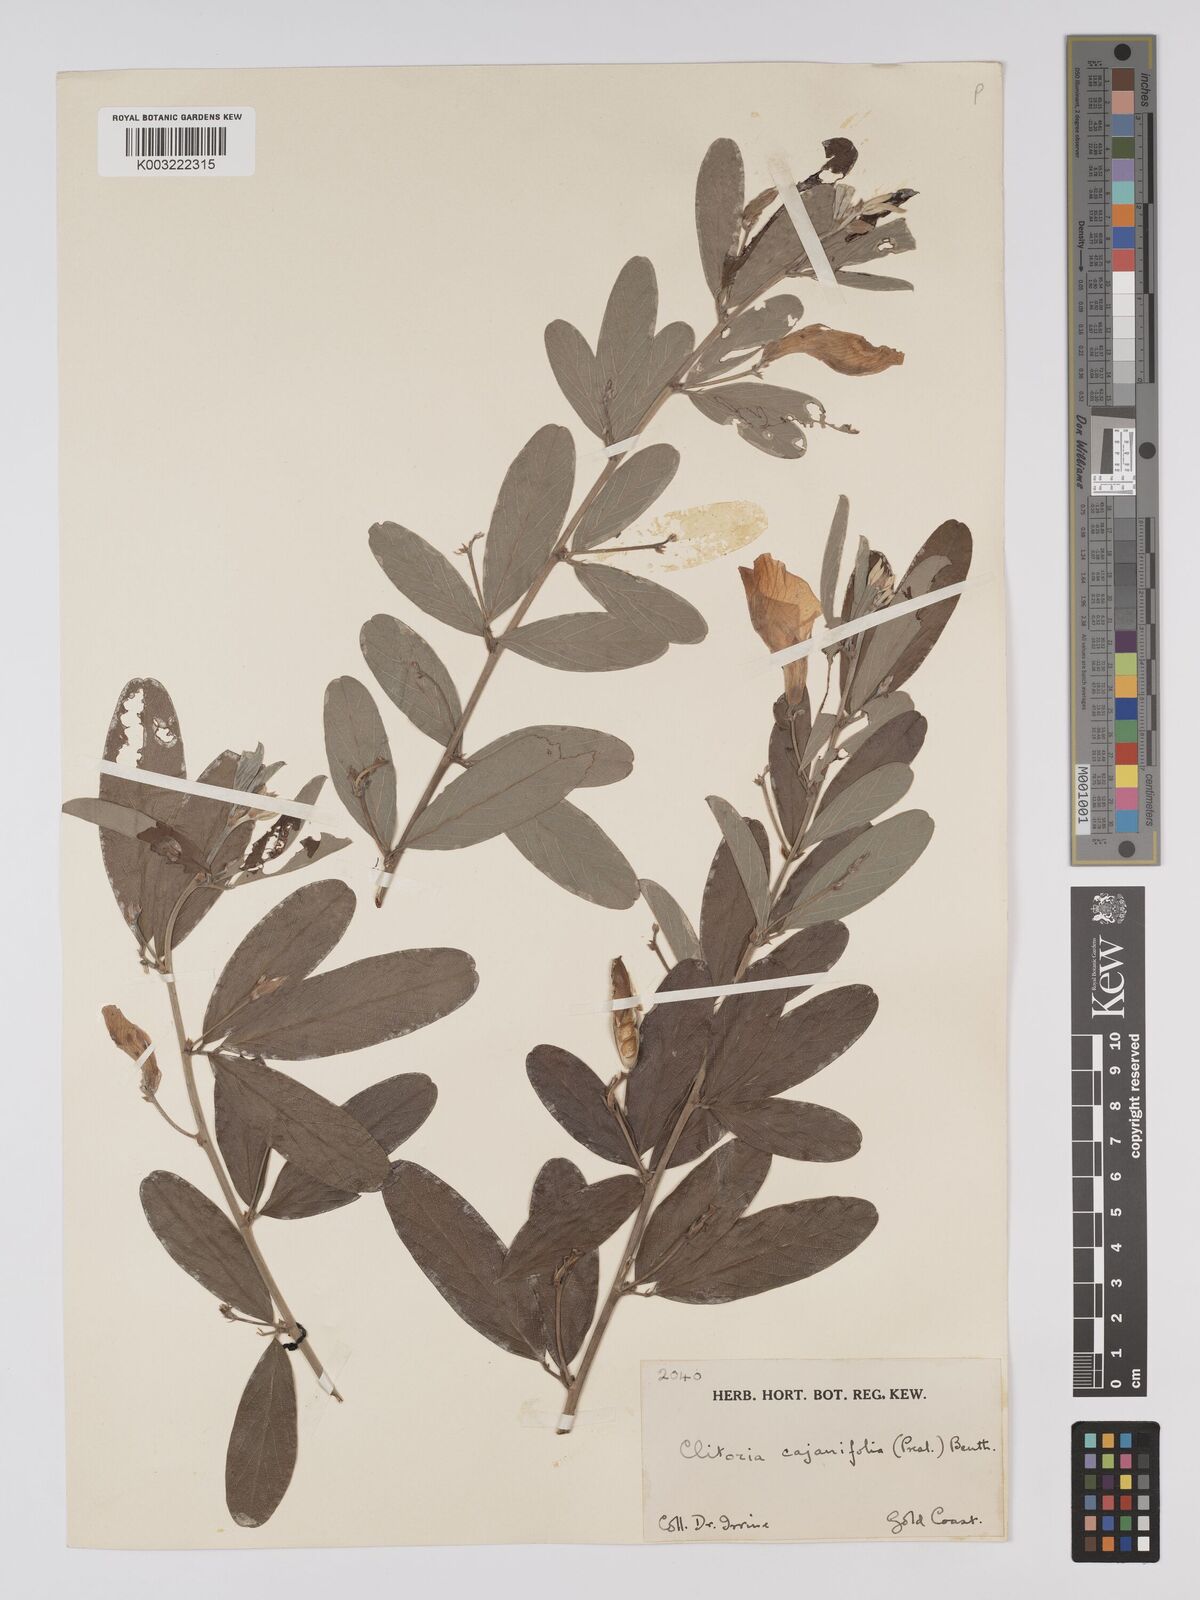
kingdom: Plantae
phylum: Tracheophyta
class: Magnoliopsida
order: Fabales
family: Fabaceae
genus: Clitoria
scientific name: Clitoria laurifolia
